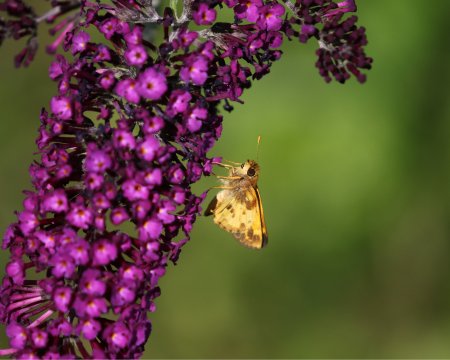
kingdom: Animalia
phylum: Arthropoda
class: Insecta
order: Lepidoptera
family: Hesperiidae
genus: Lon
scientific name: Lon zabulon
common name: Zabulon Skipper
